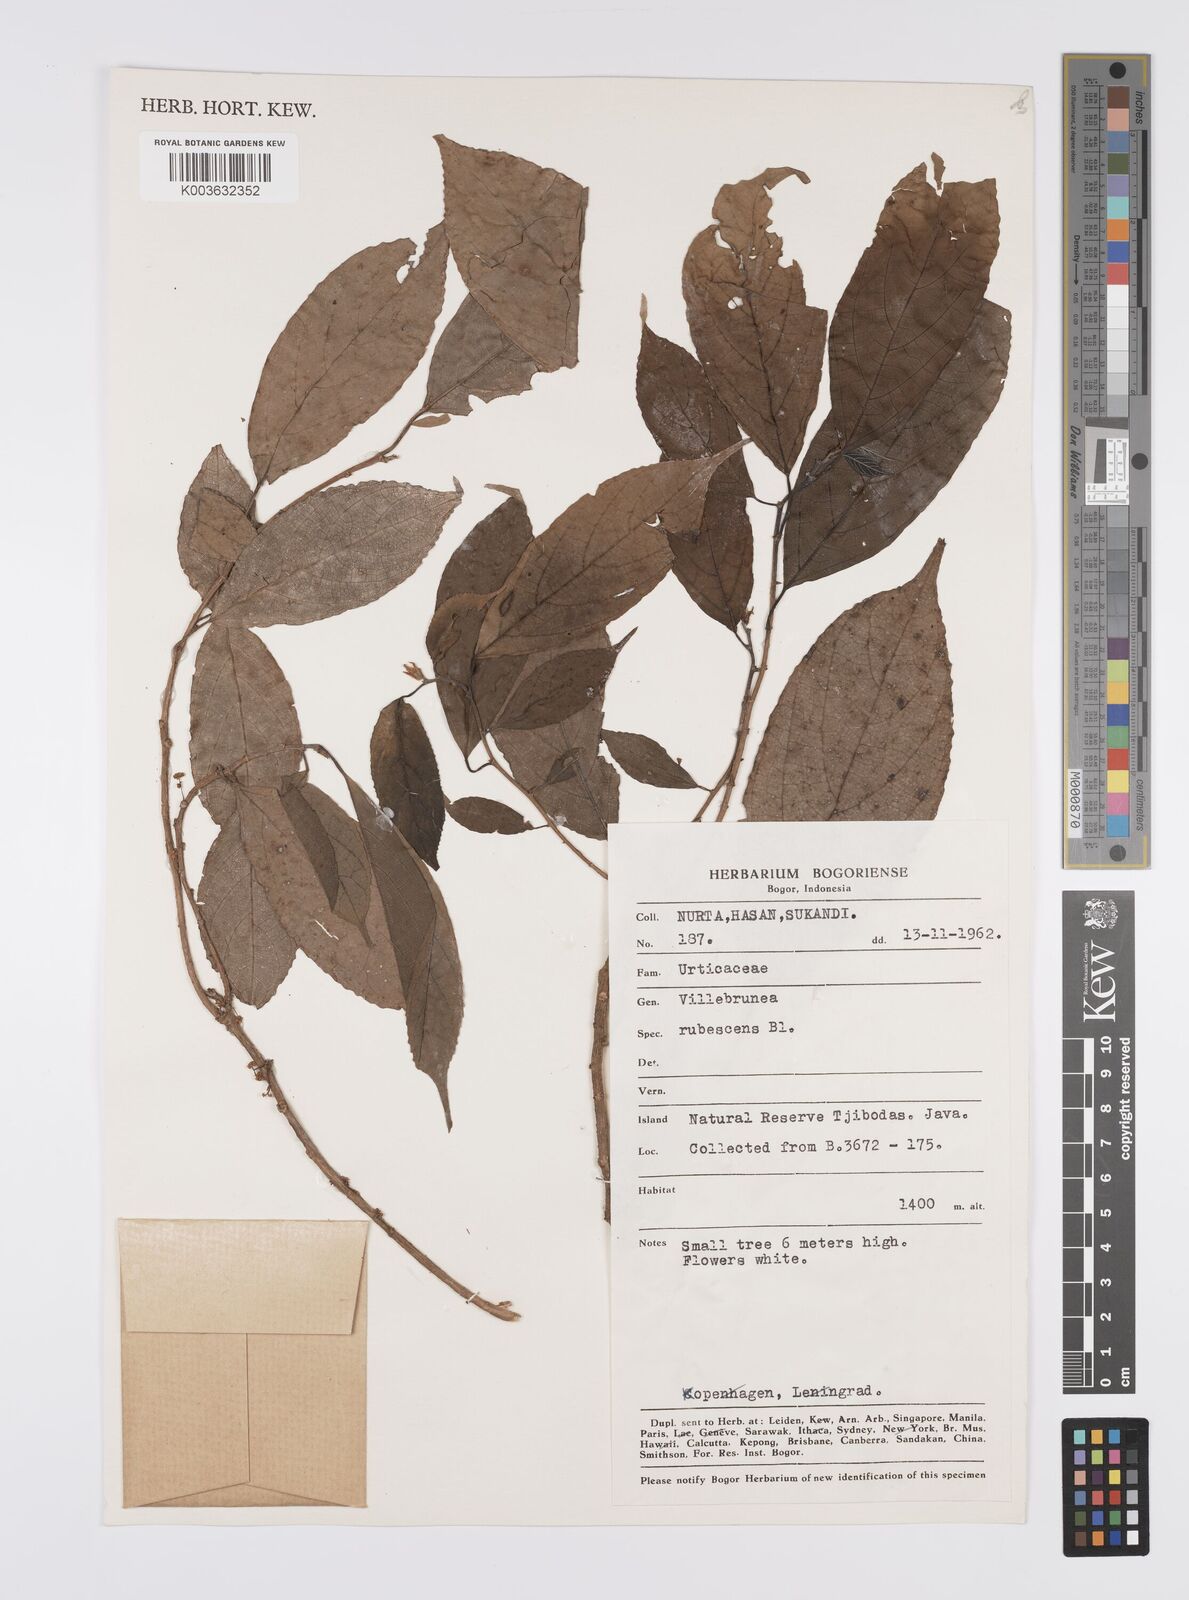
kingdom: Plantae
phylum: Tracheophyta
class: Magnoliopsida
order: Rosales
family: Urticaceae
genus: Oreocnide
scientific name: Oreocnide rubescens
